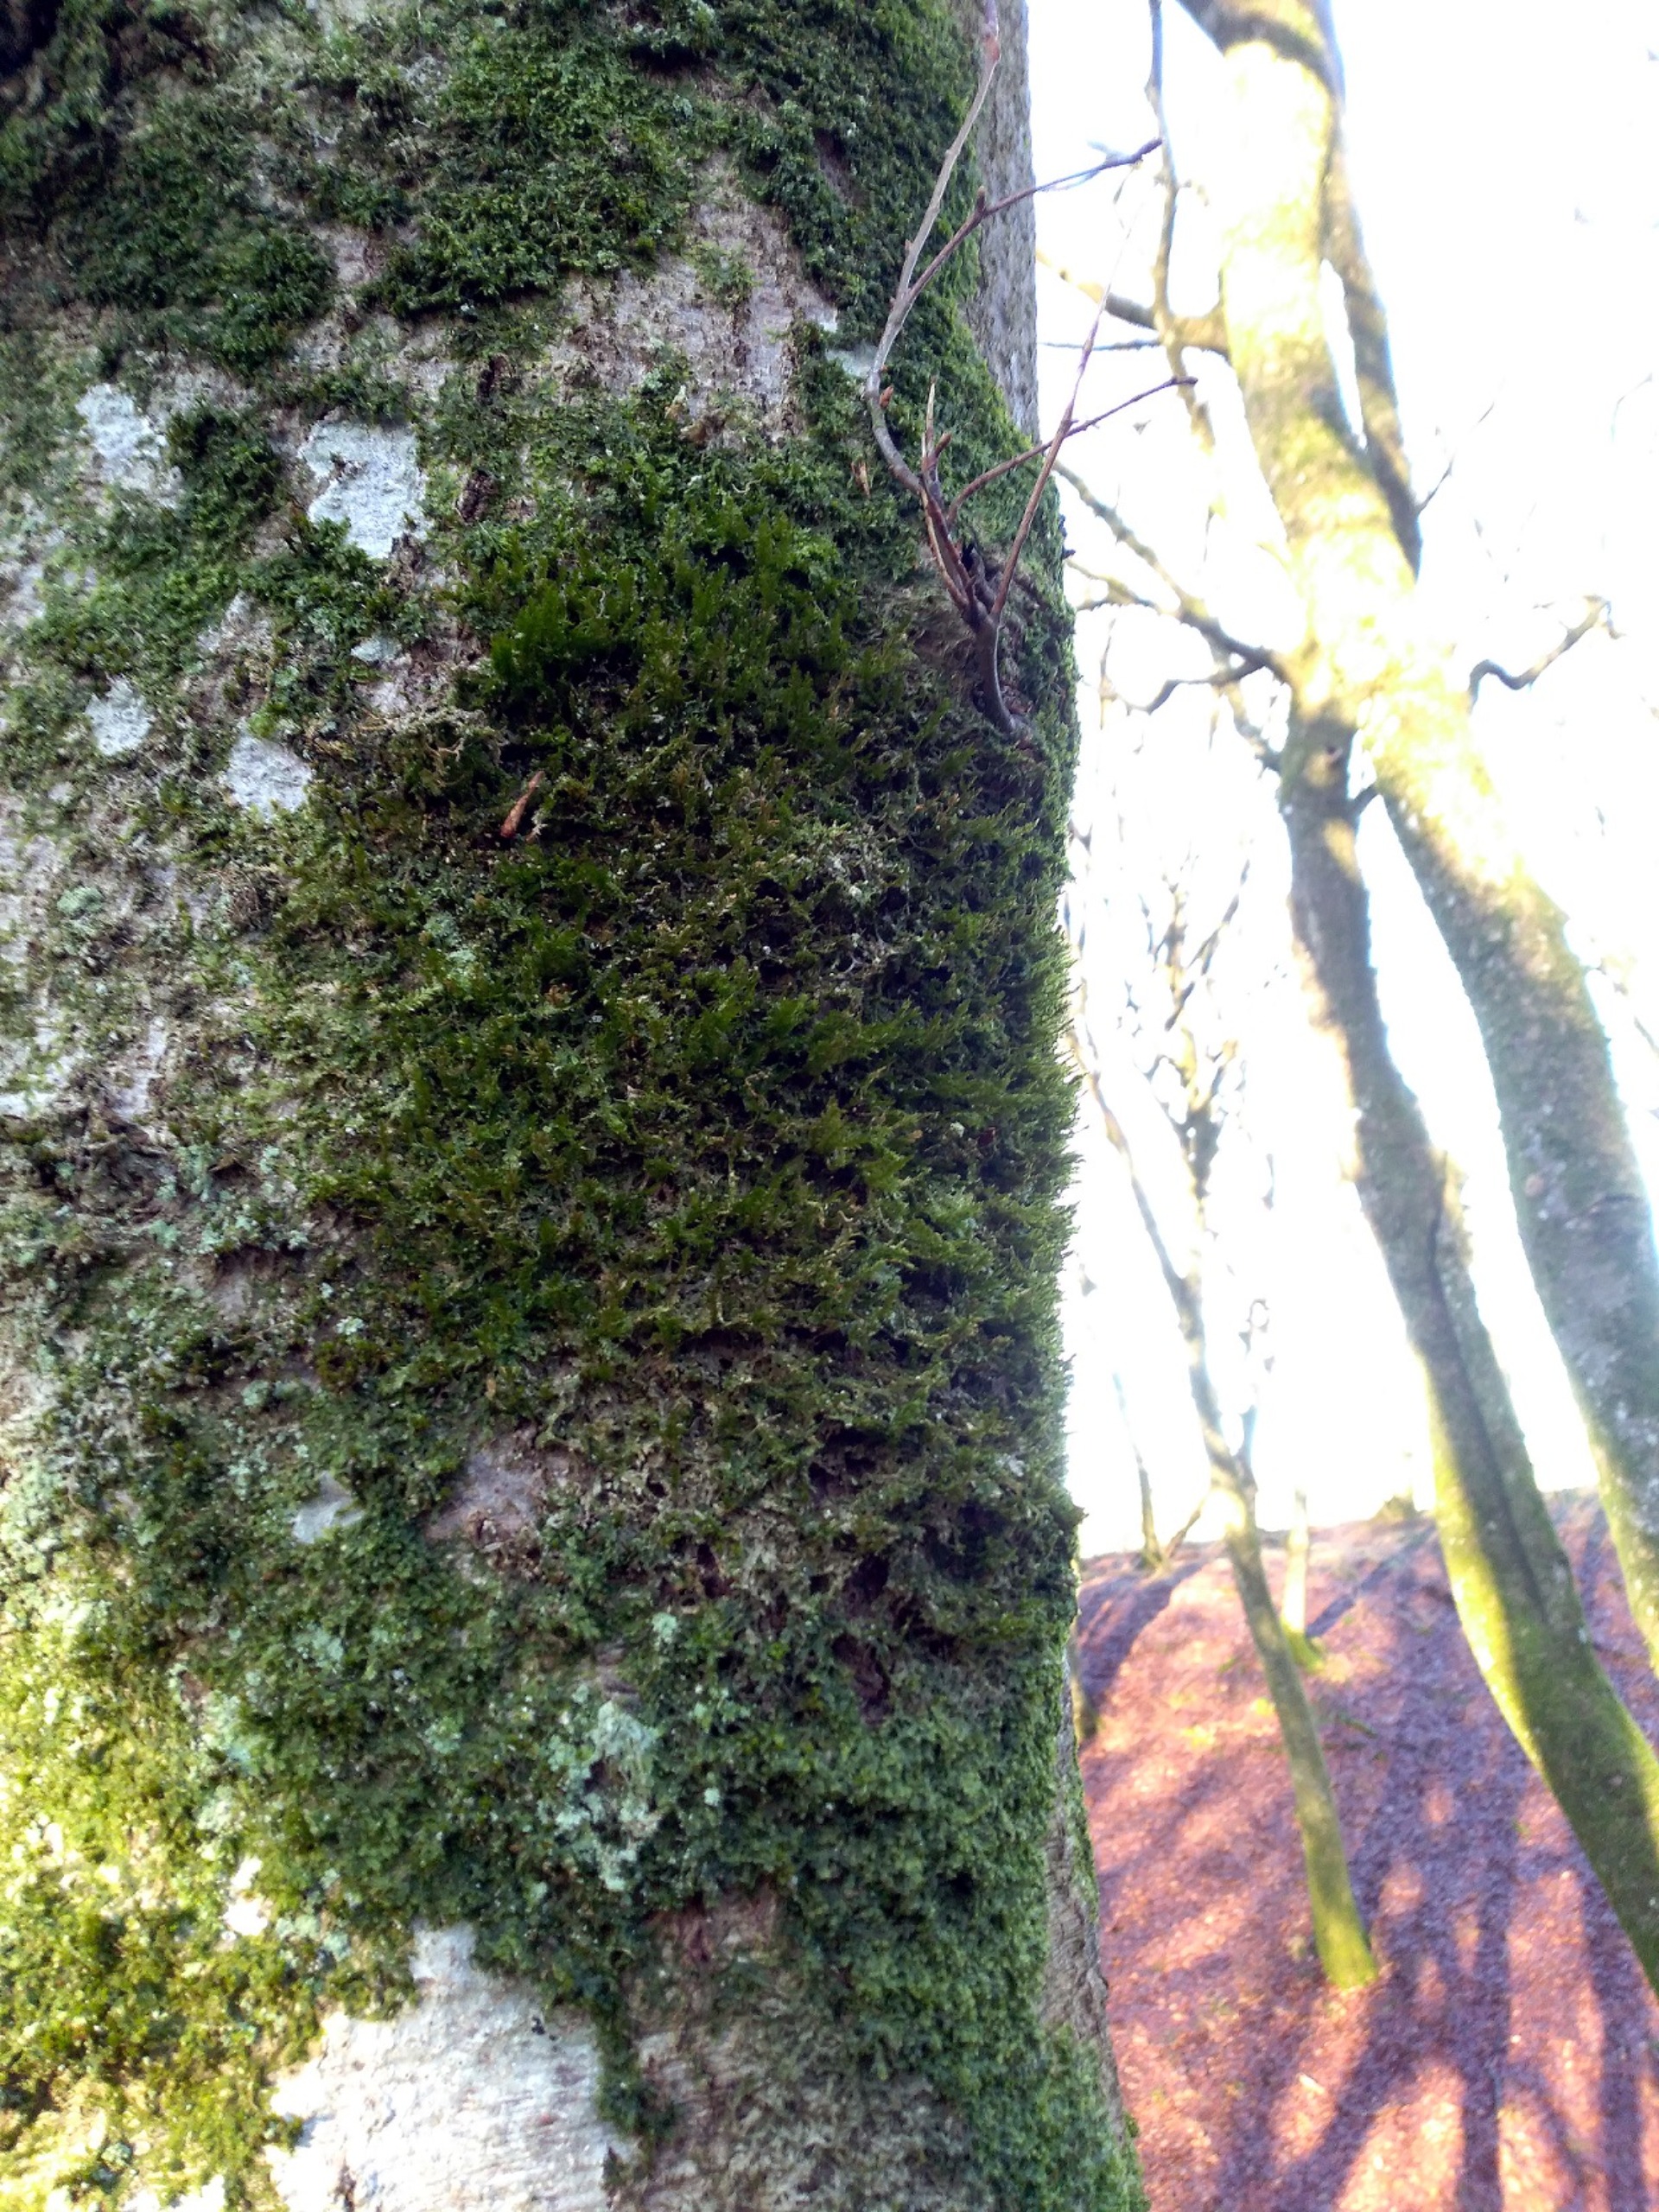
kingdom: Plantae
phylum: Bryophyta
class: Bryopsida
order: Hypnales
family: Neckeraceae
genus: Neckera
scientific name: Neckera pumila
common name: Lav fladmos
